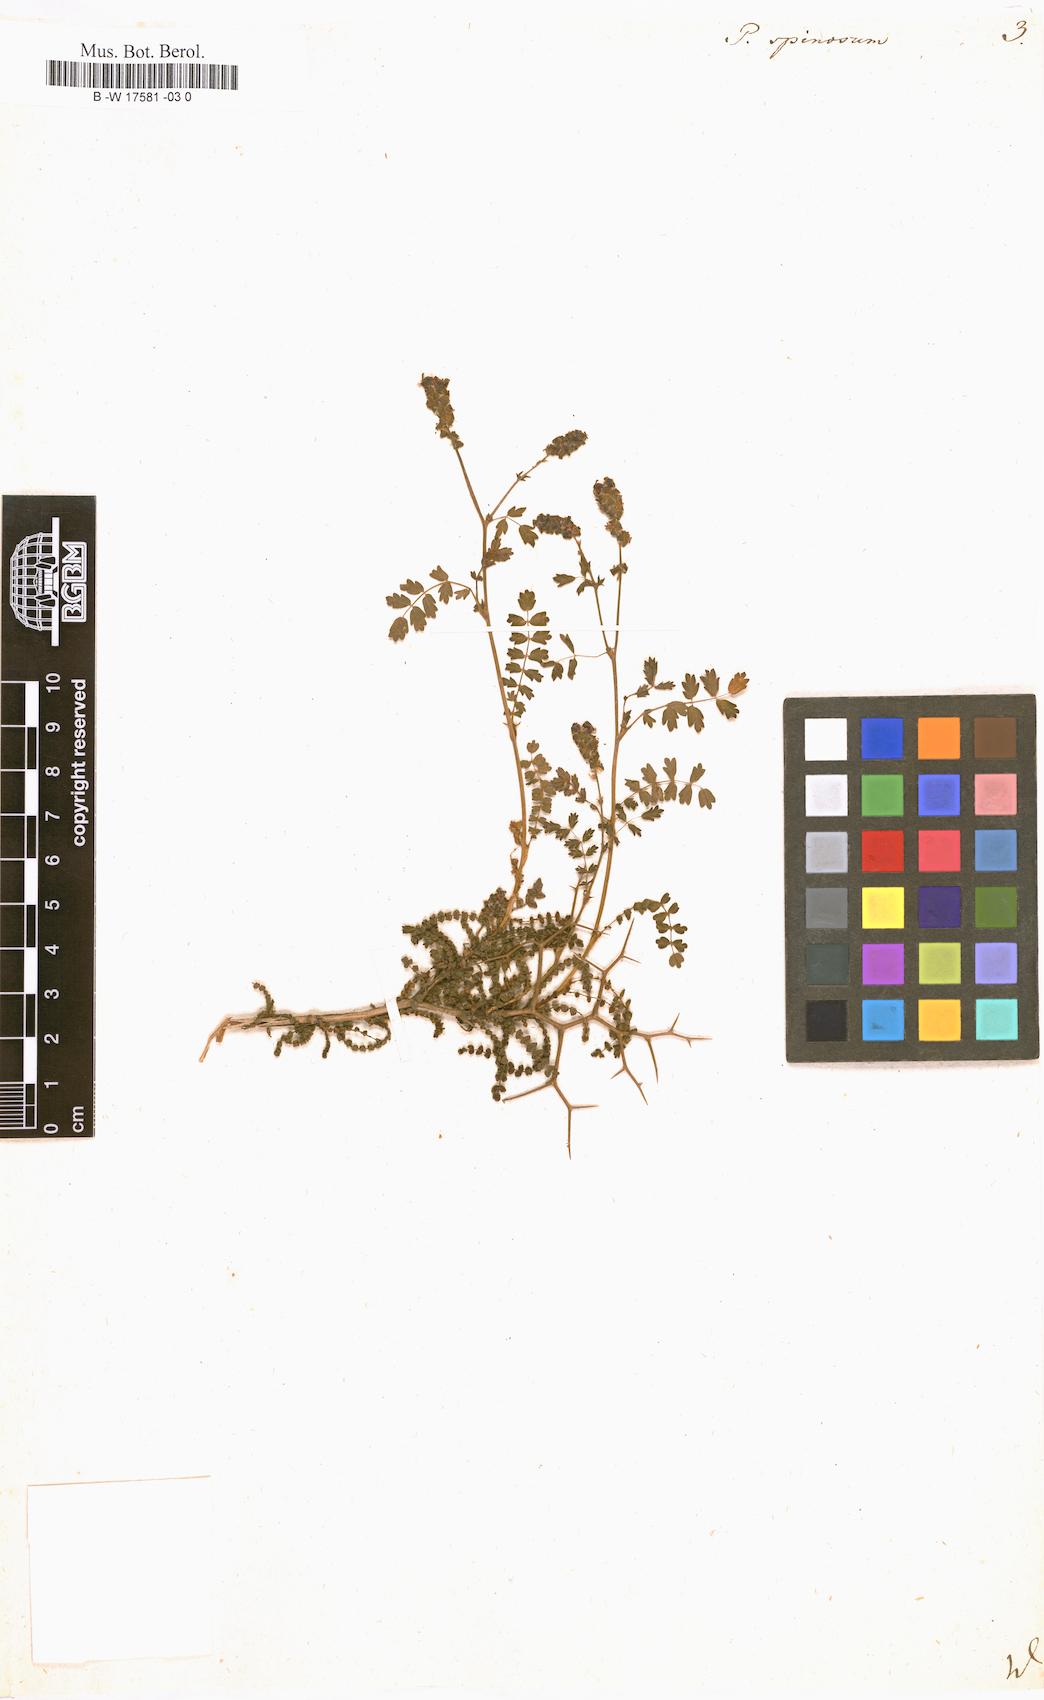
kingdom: Plantae
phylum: Tracheophyta
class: Magnoliopsida
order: Rosales
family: Rosaceae
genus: Sarcopoterium
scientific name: Sarcopoterium spinosum
